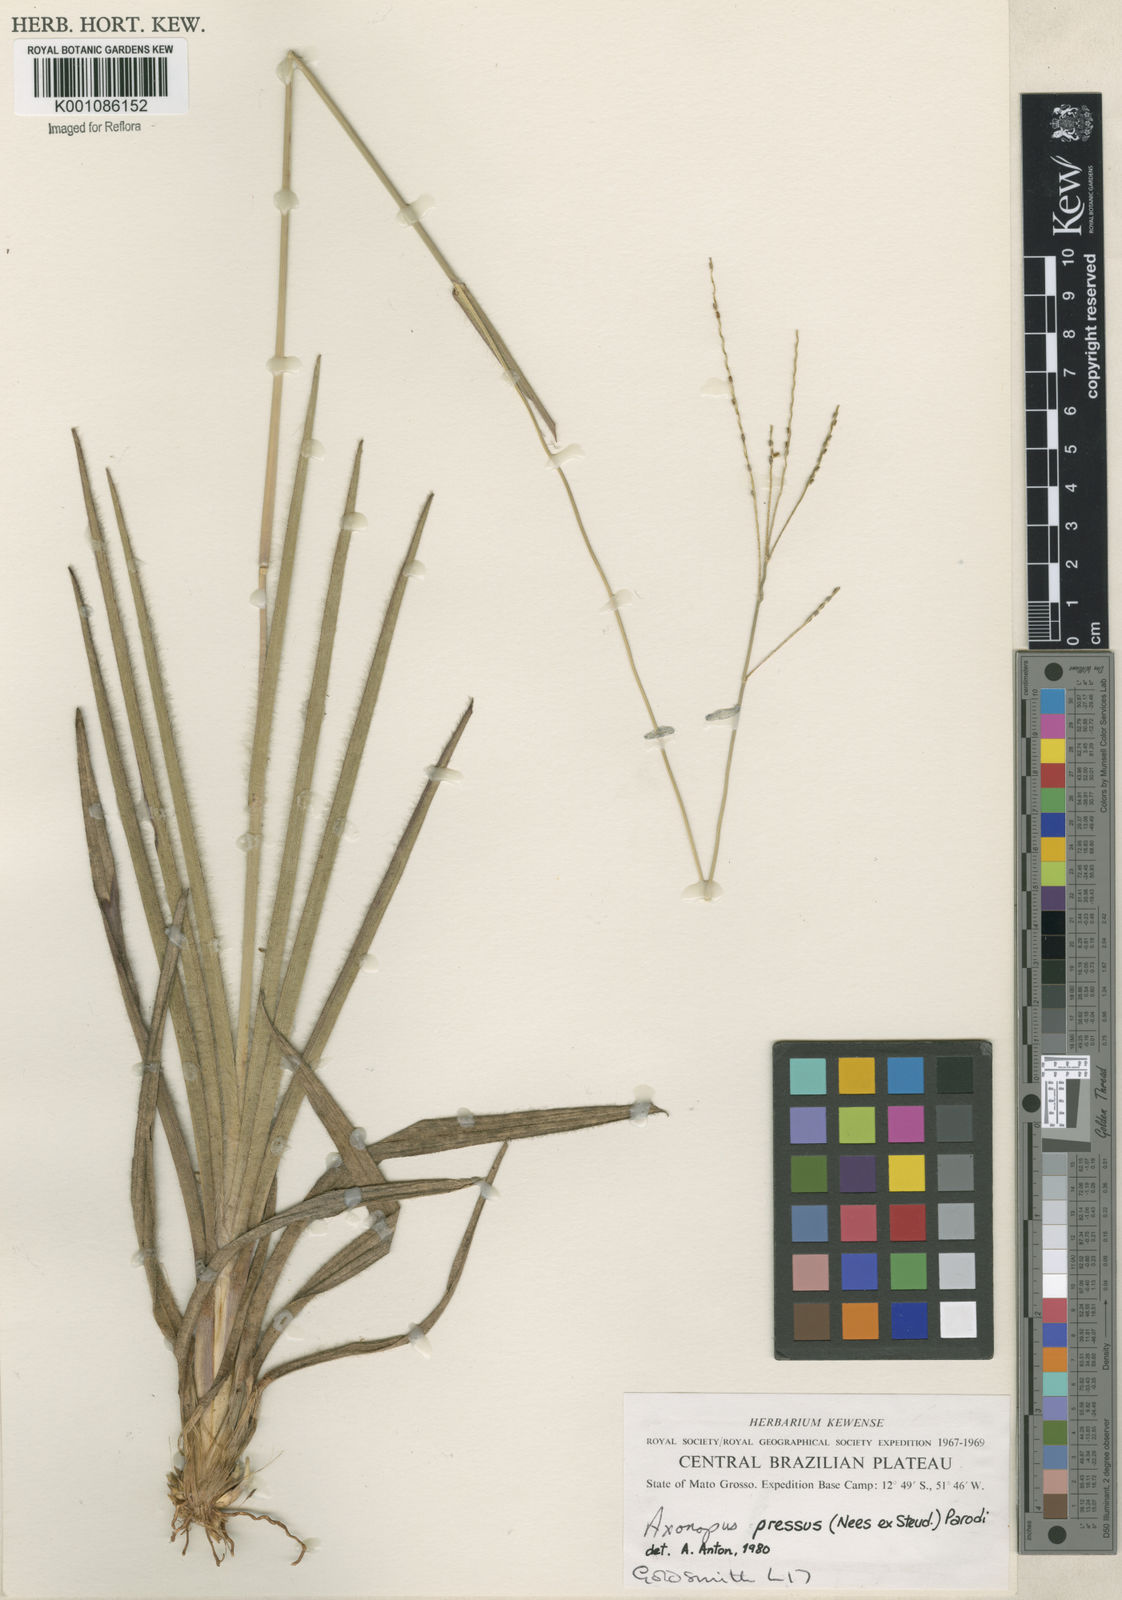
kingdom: Plantae
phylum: Tracheophyta
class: Liliopsida
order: Poales
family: Poaceae
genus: Axonopus
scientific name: Axonopus pressus
